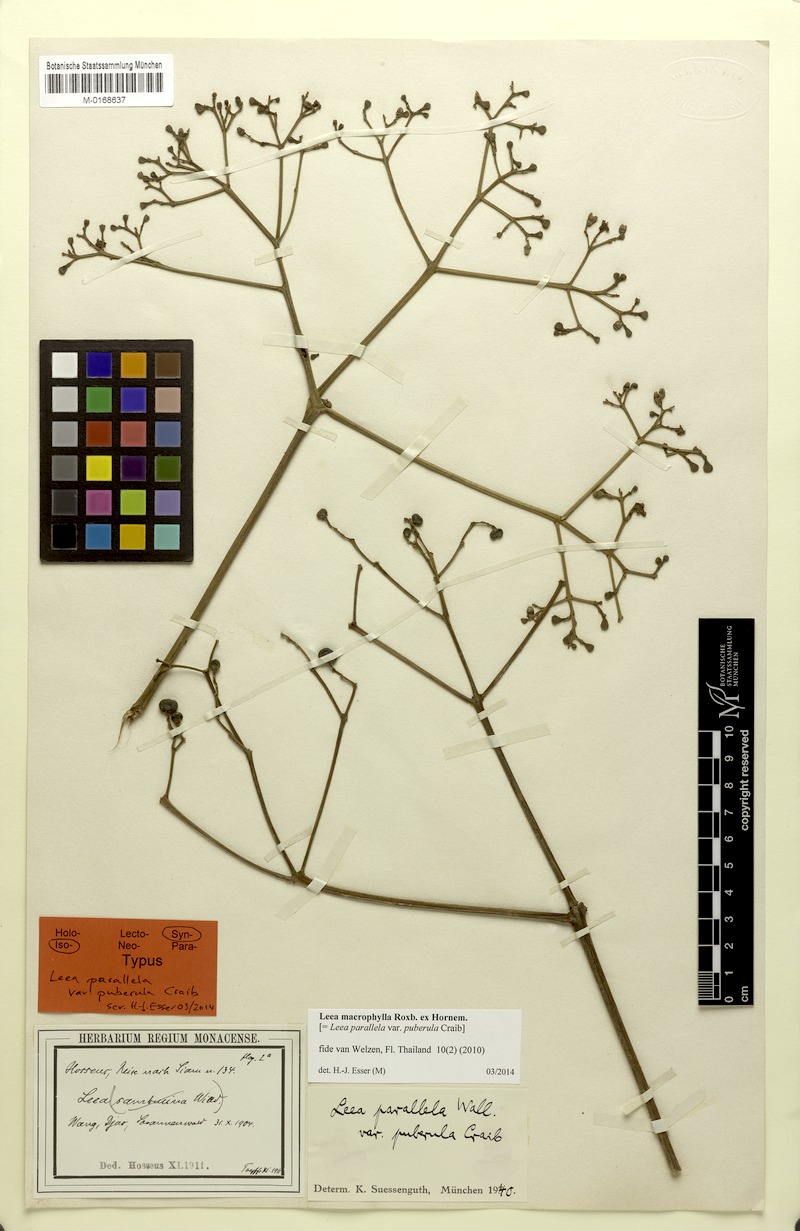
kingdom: Plantae
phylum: Tracheophyta
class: Magnoliopsida
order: Vitales
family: Vitaceae
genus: Leea
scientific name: Leea macrophylla
